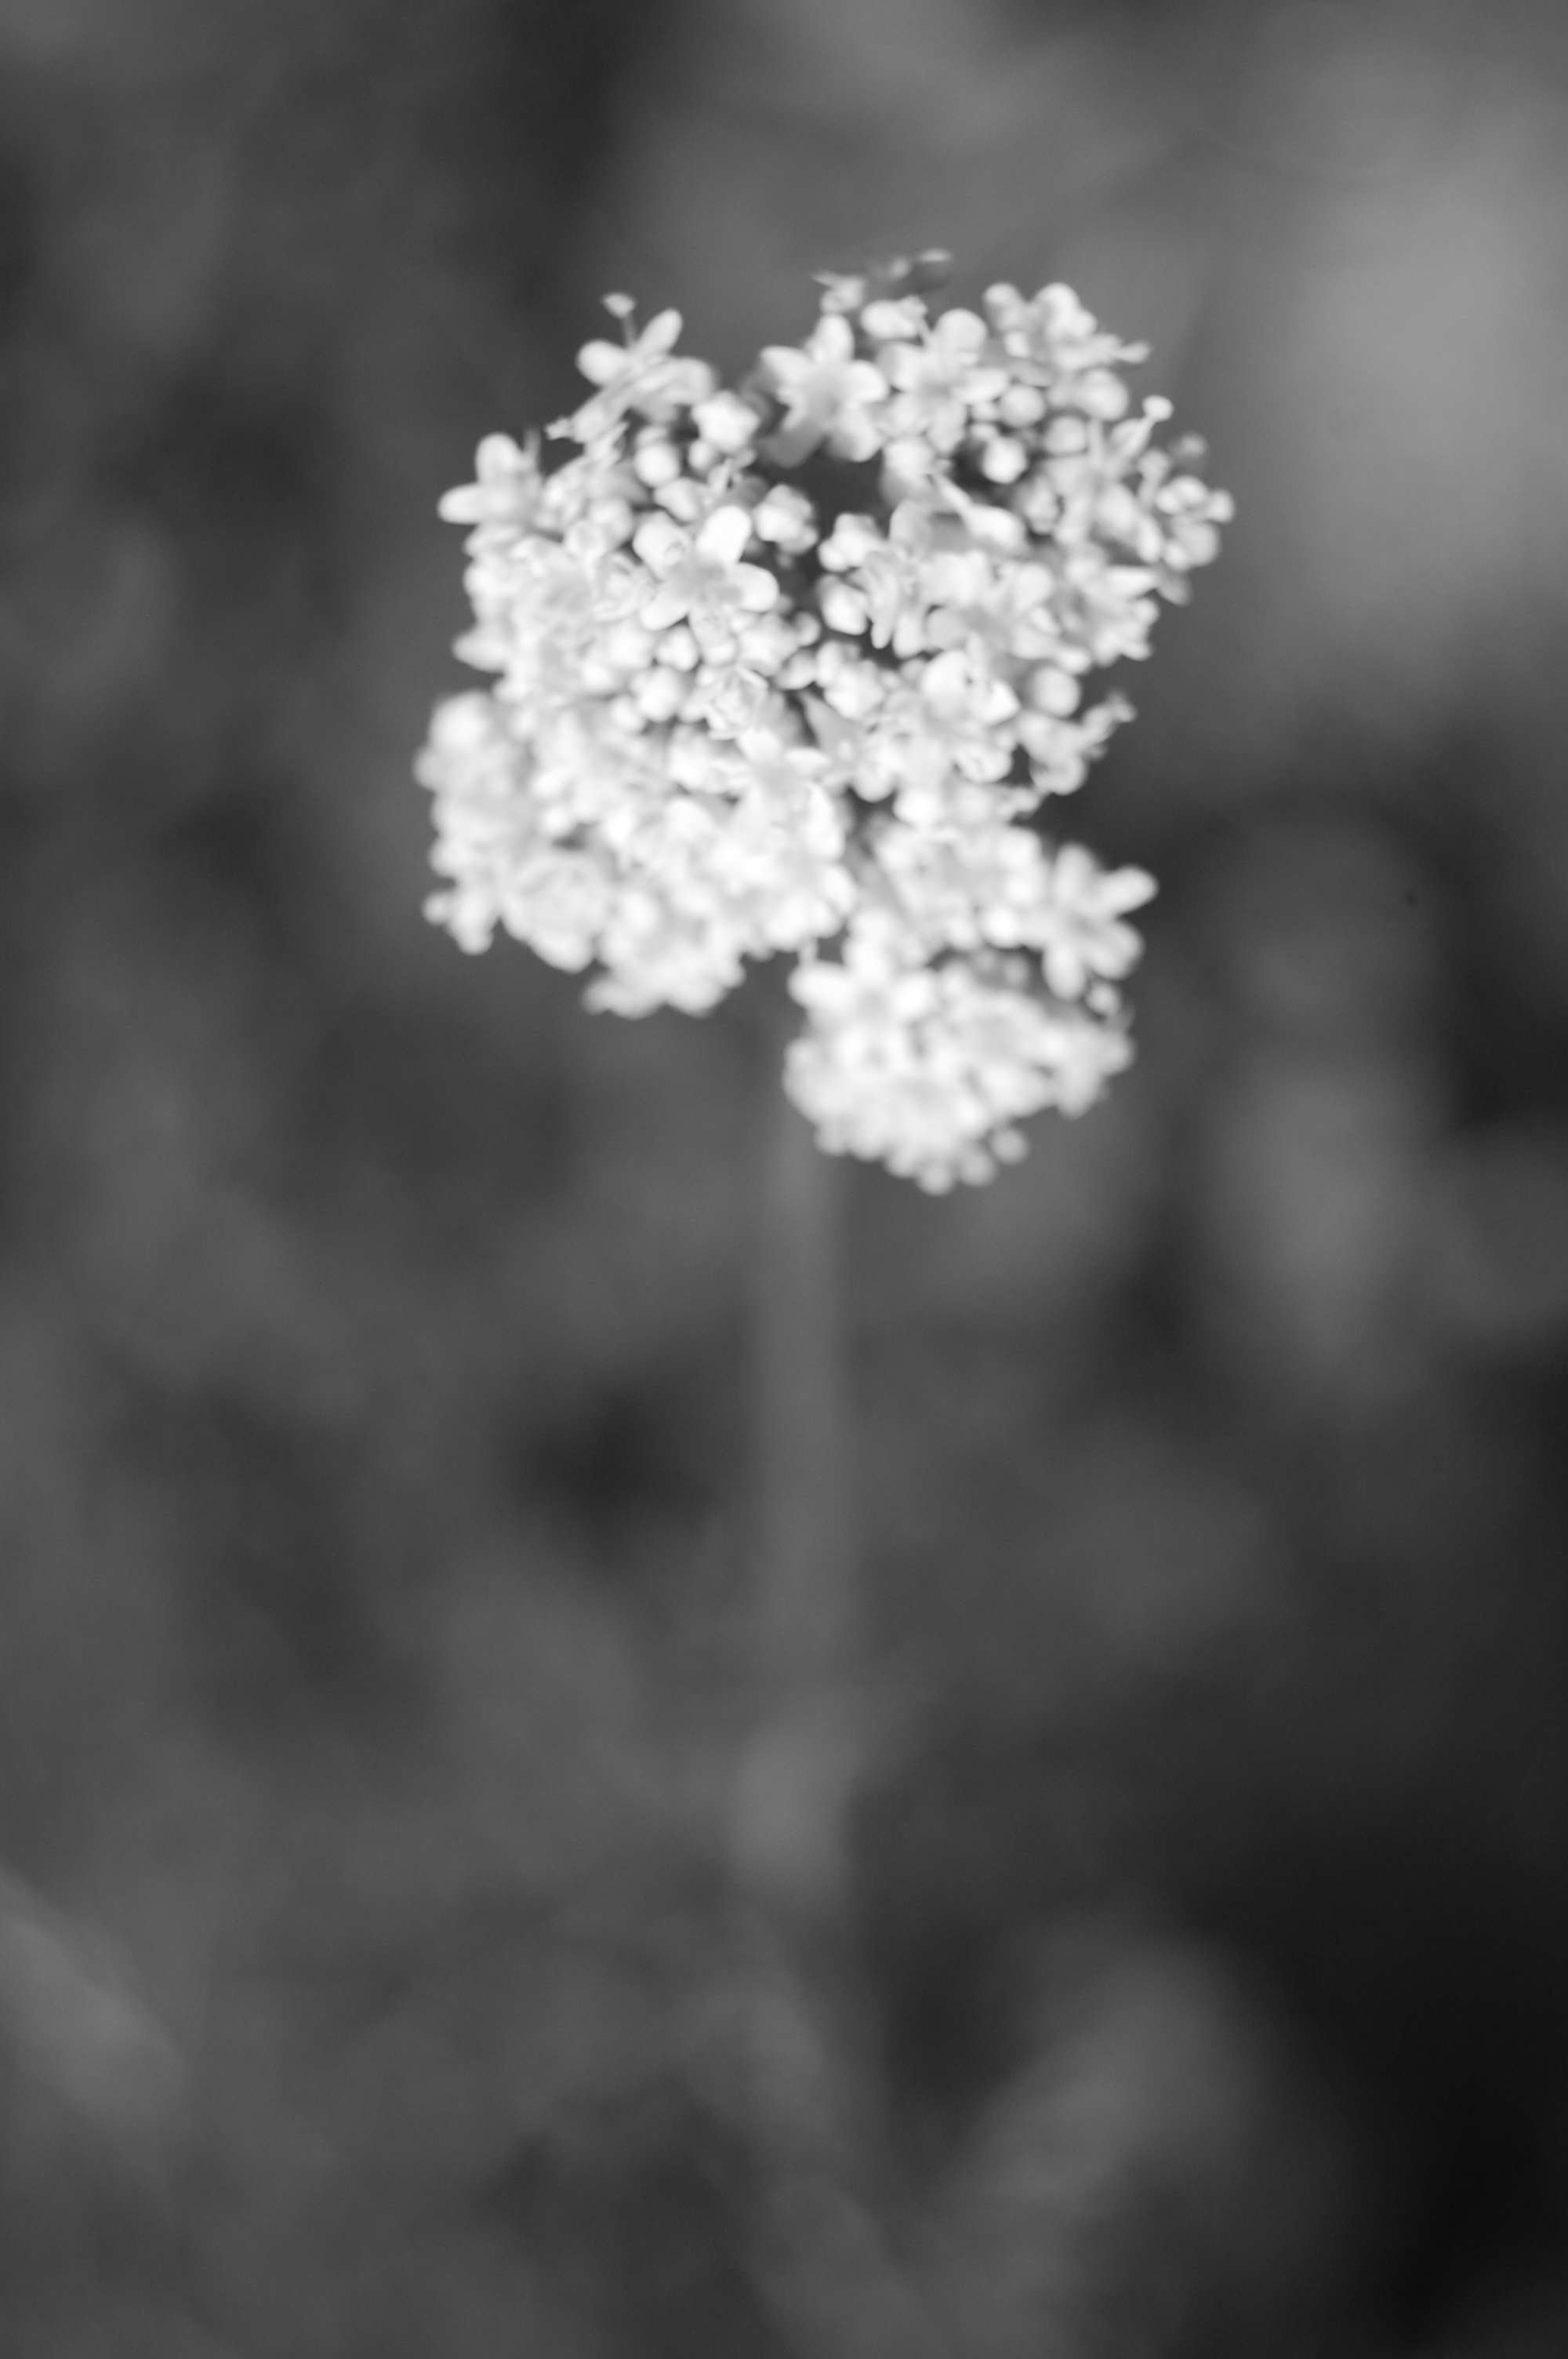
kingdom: Plantae
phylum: Tracheophyta
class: Magnoliopsida
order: Dipsacales
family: Caprifoliaceae
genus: Valeriana
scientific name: Valeriana officinalis
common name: Common valerian
